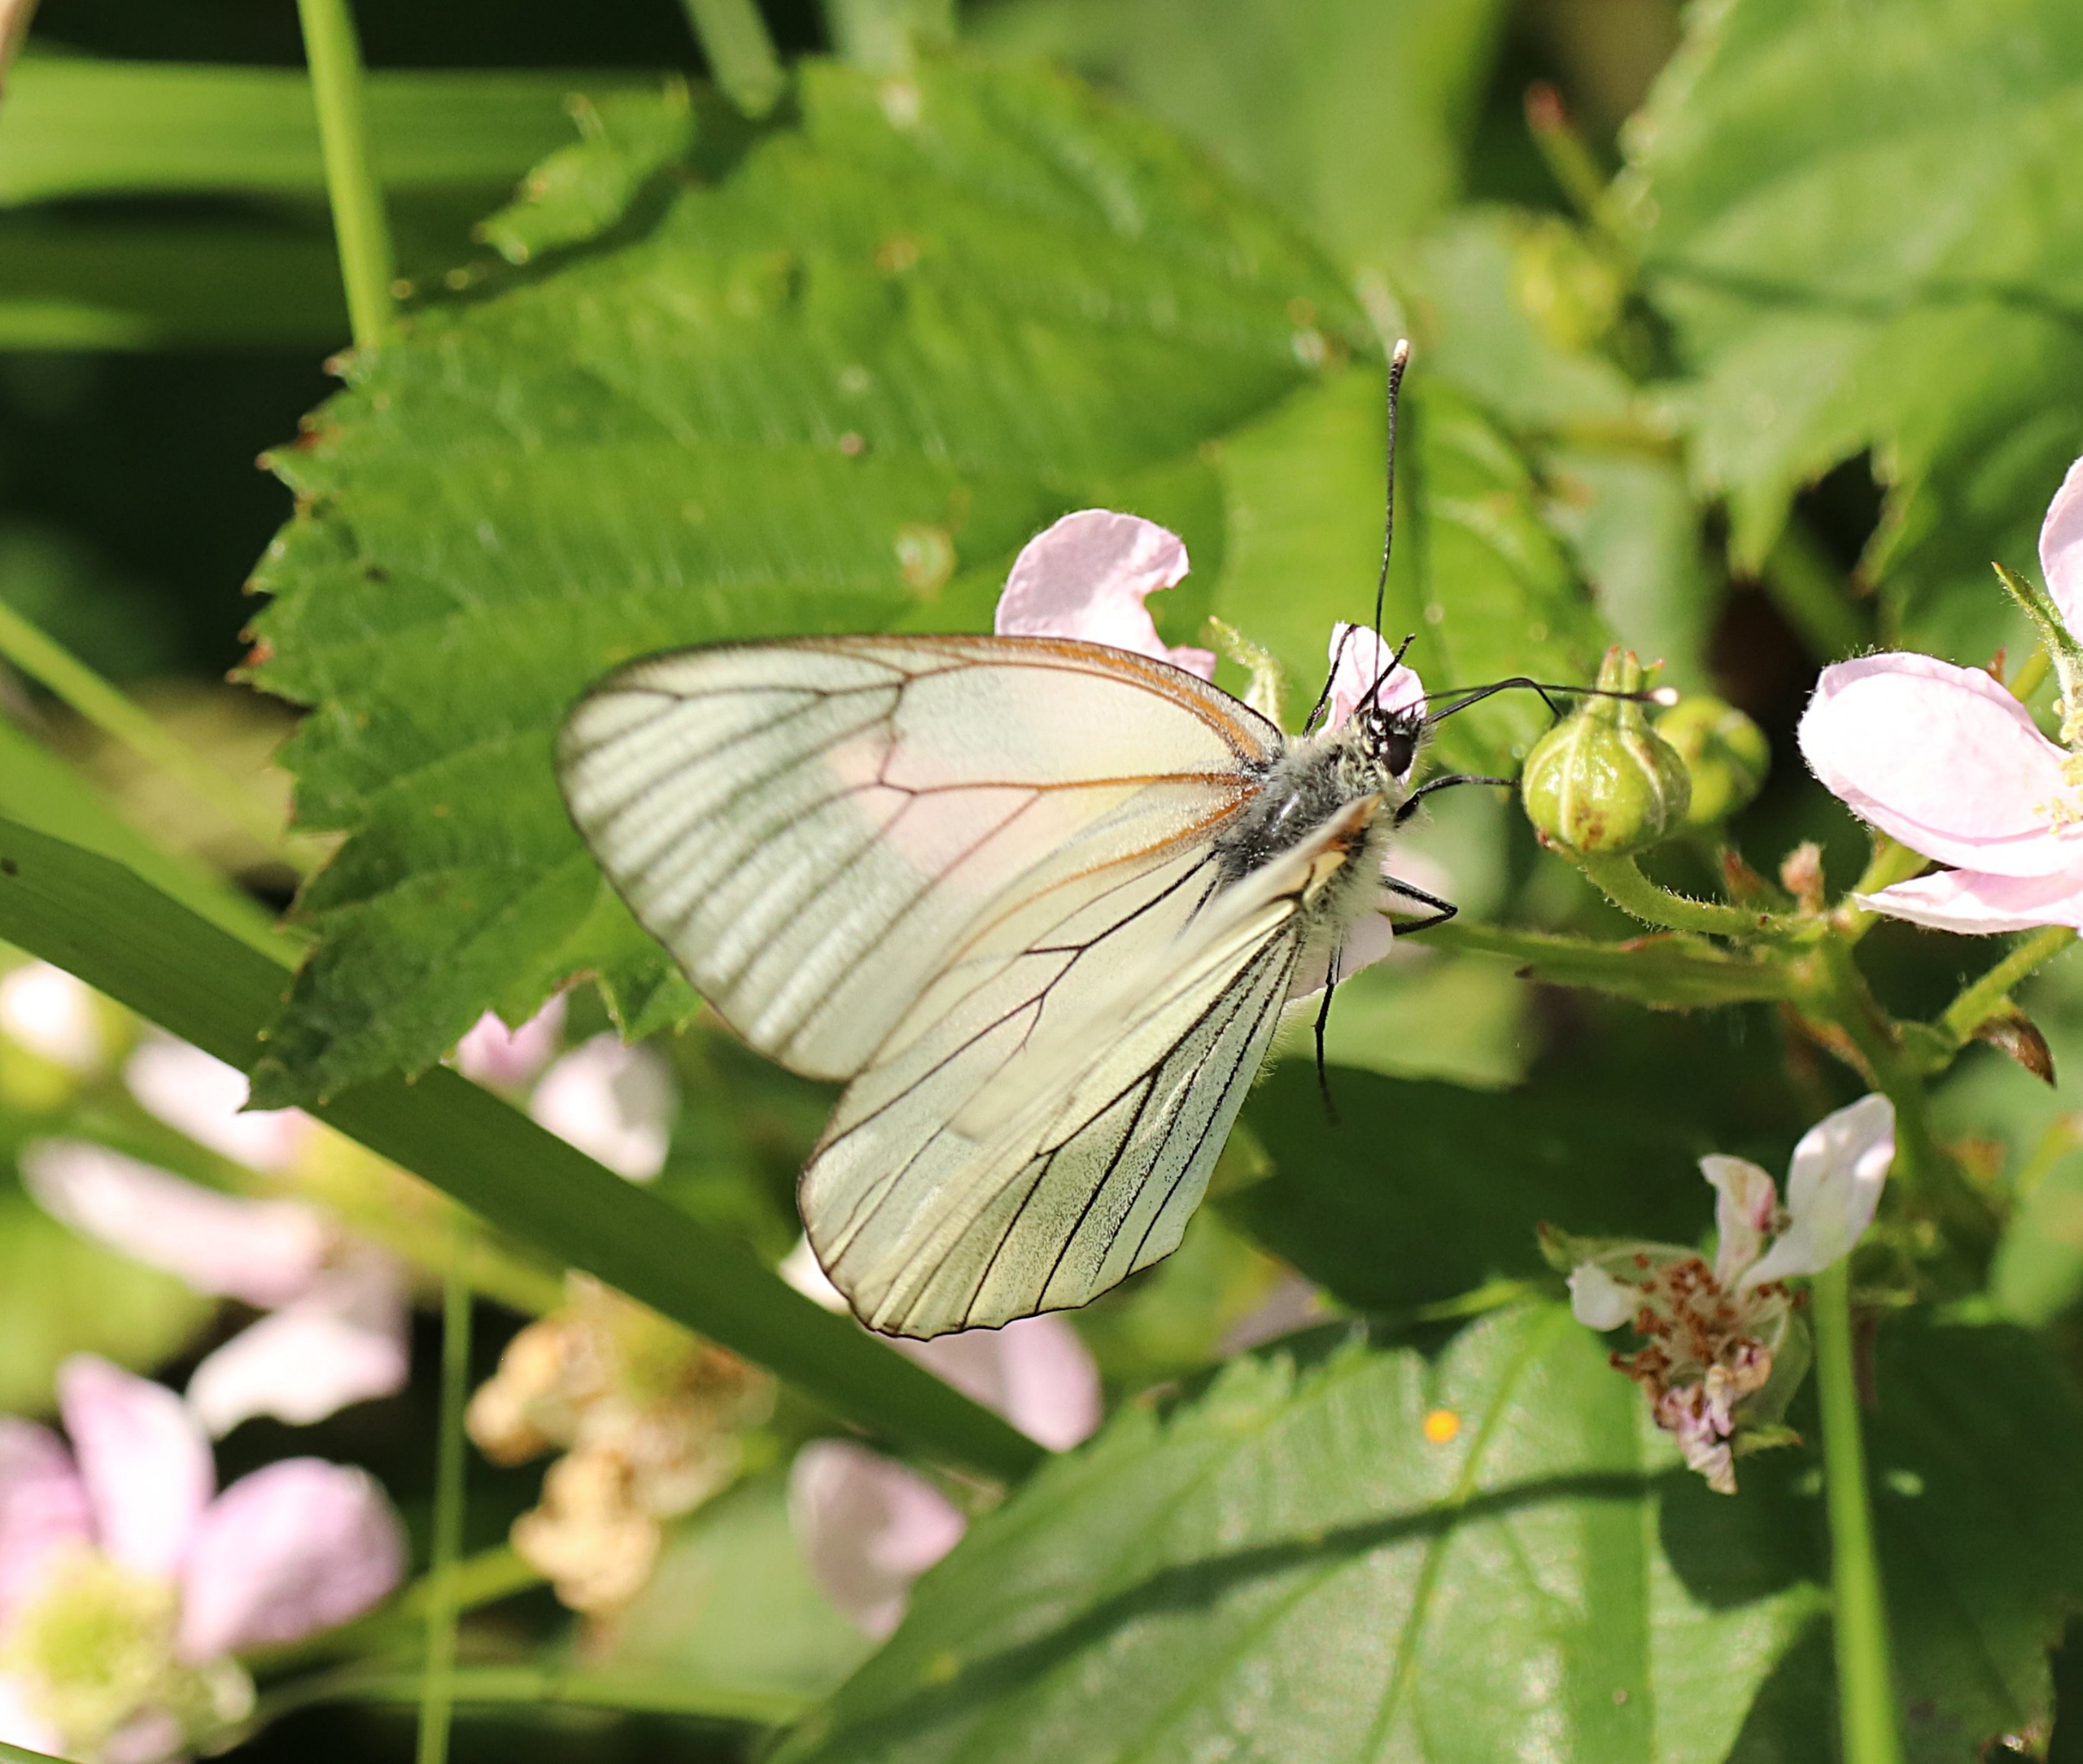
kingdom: Animalia
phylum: Arthropoda
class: Insecta
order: Lepidoptera
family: Pieridae
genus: Aporia
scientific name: Aporia crataegi
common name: Sortåret hvidvinge
